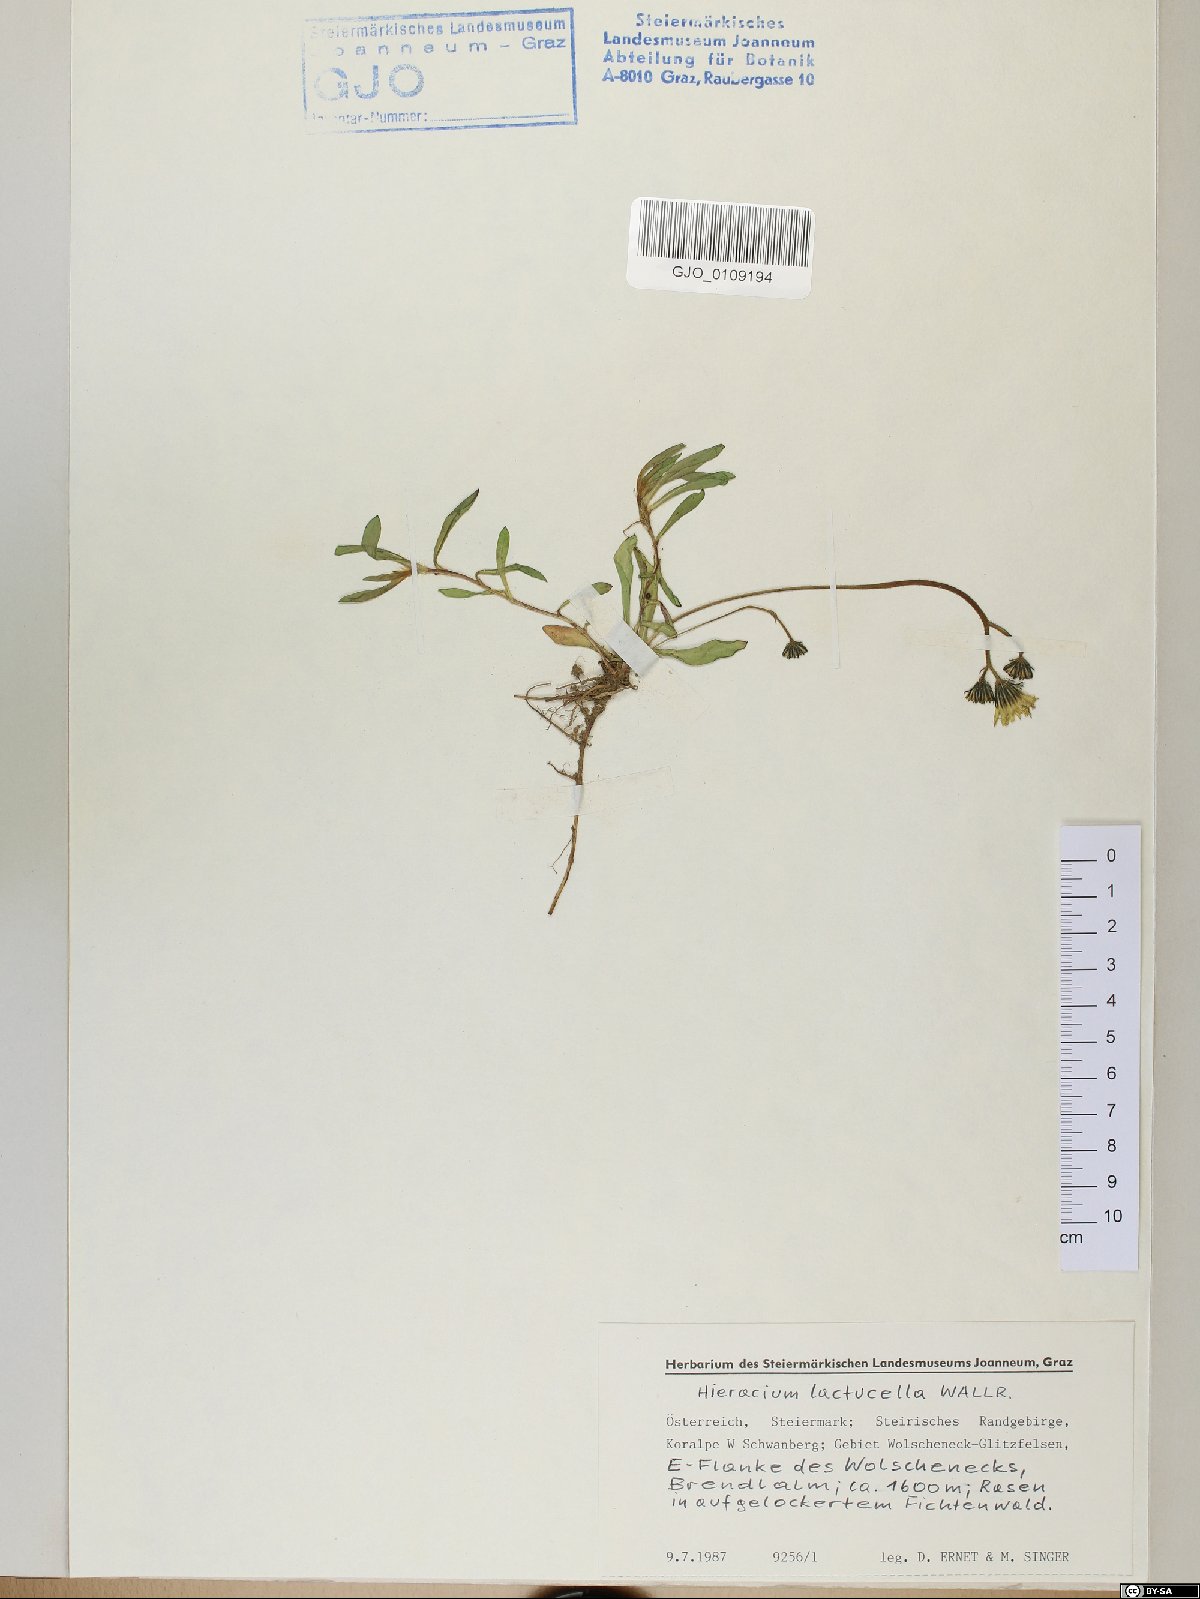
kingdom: Plantae
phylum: Tracheophyta
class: Magnoliopsida
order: Asterales
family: Asteraceae
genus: Pilosella
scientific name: Pilosella lactucella
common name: Glaucous fox-and-cubs
